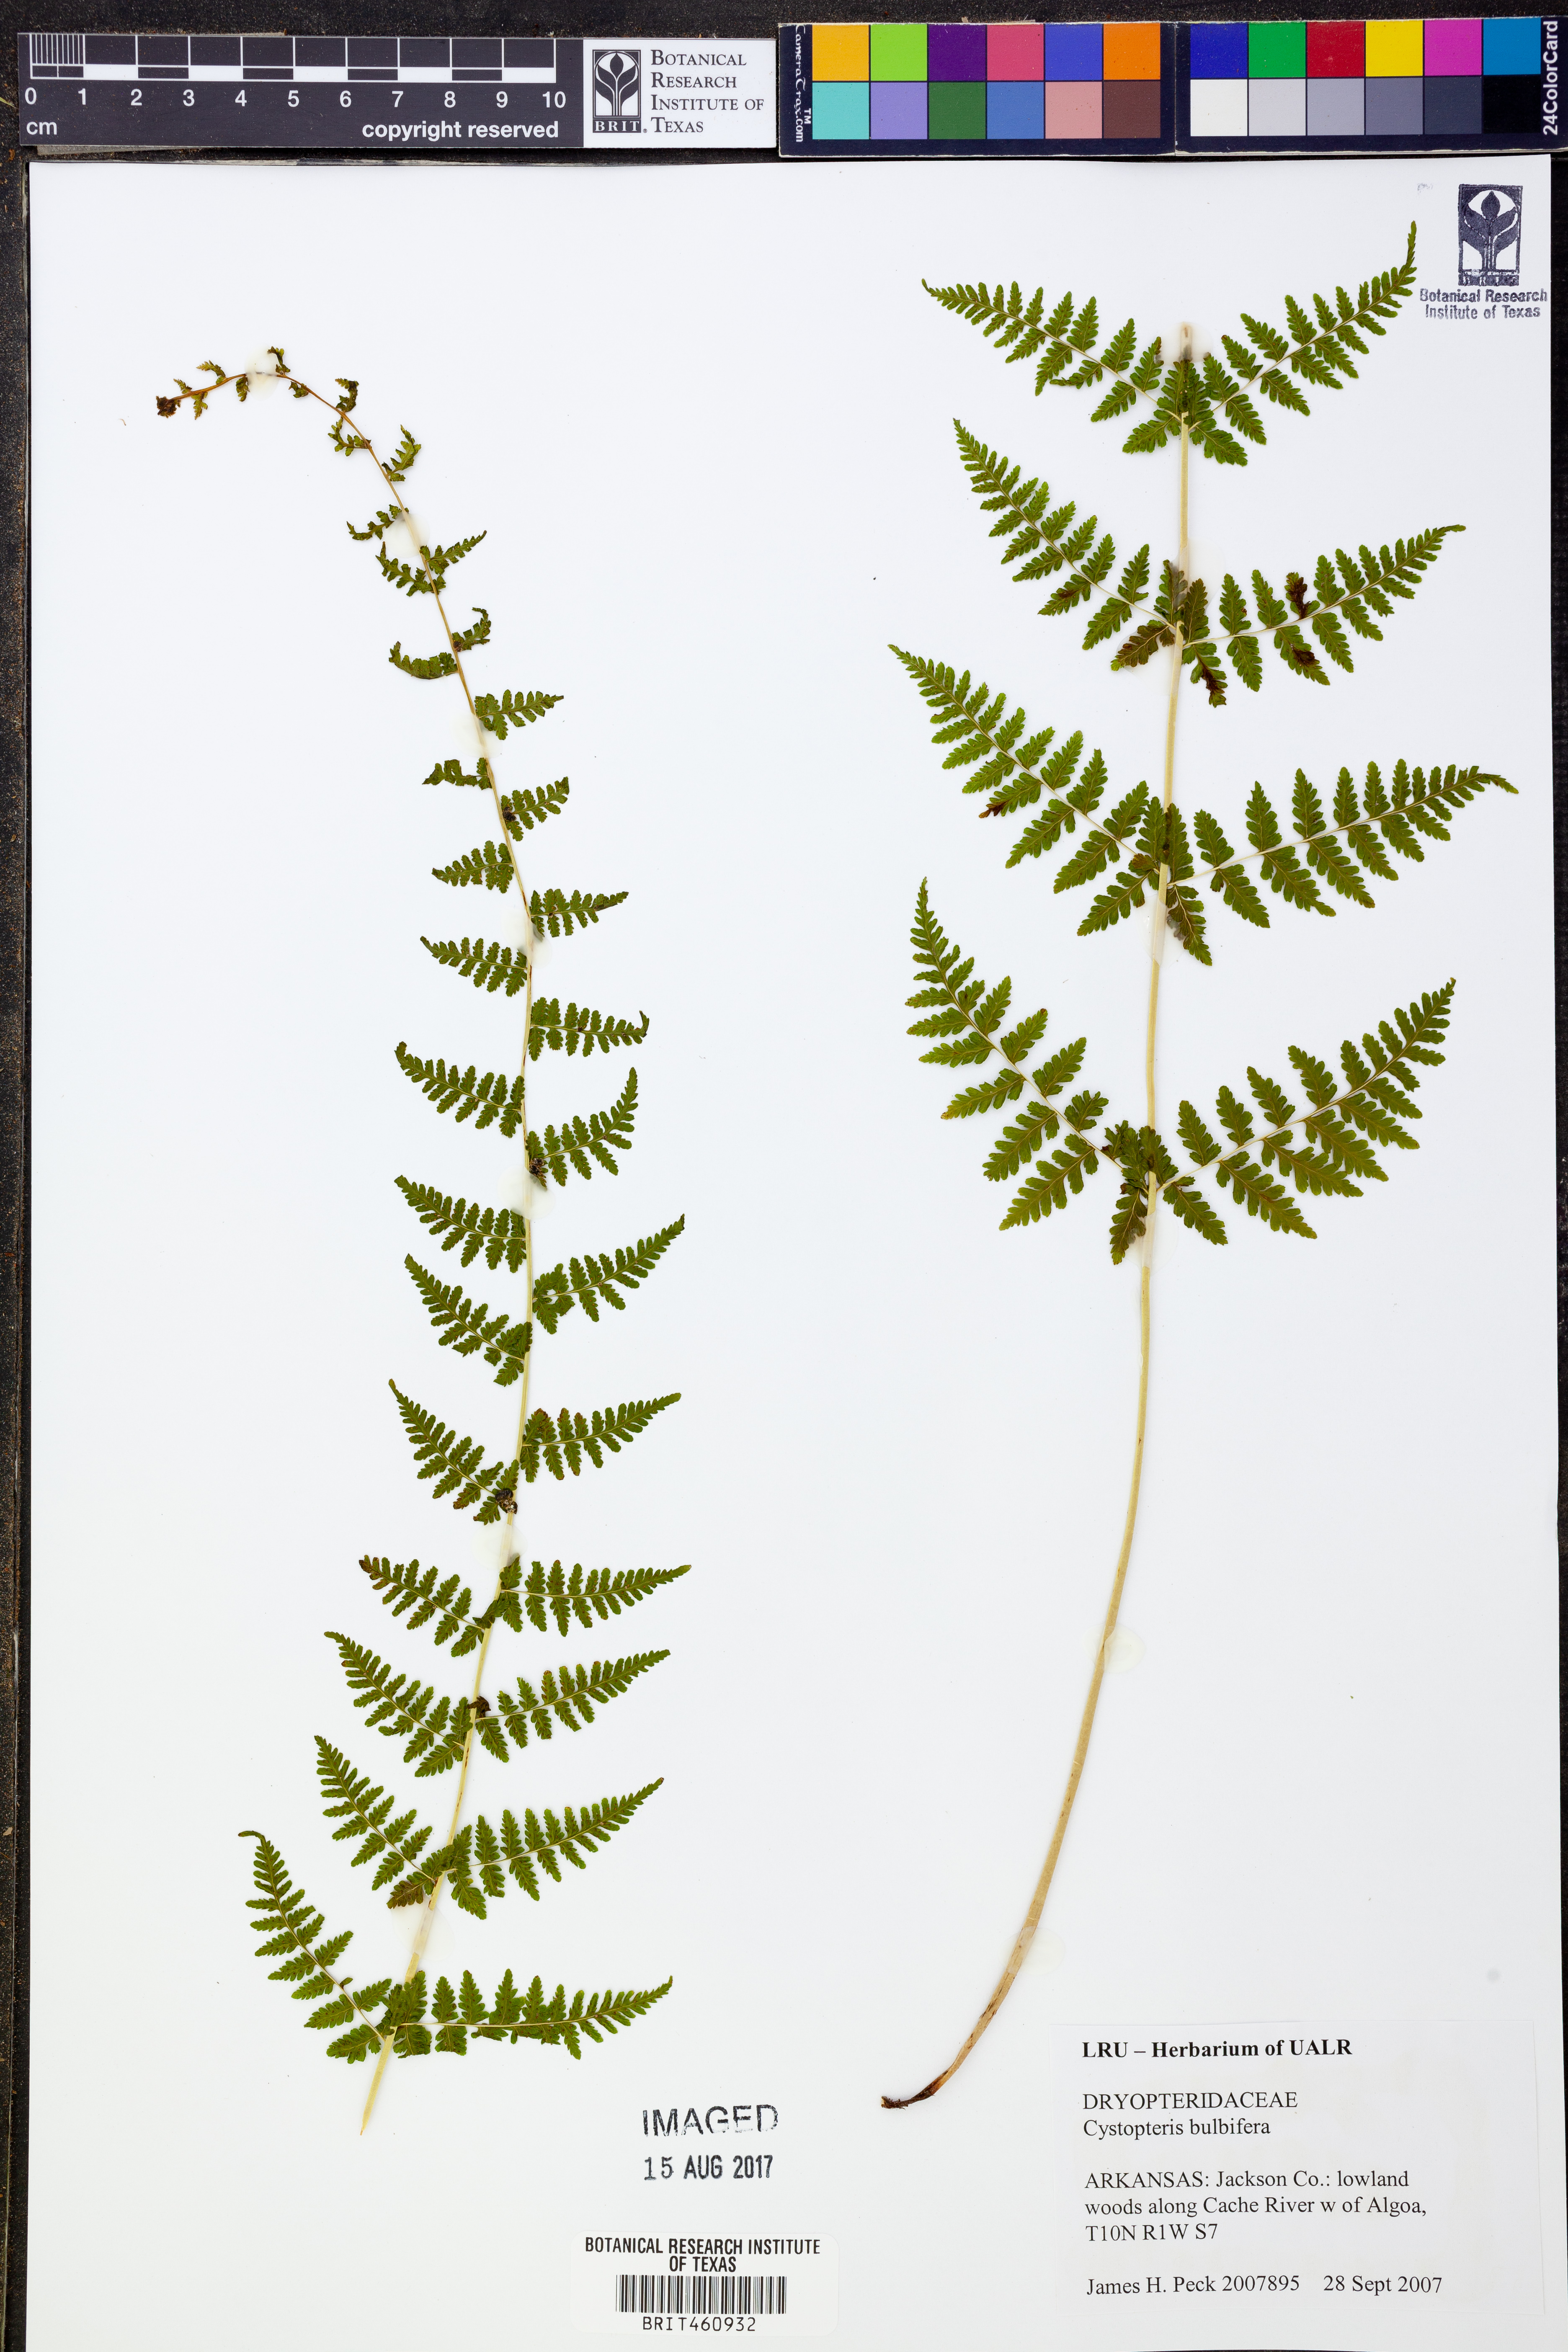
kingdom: Plantae
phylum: Tracheophyta
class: Polypodiopsida
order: Polypodiales
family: Cystopteridaceae
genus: Cystopteris
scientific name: Cystopteris bulbifera
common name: Bulblet bladder fern
